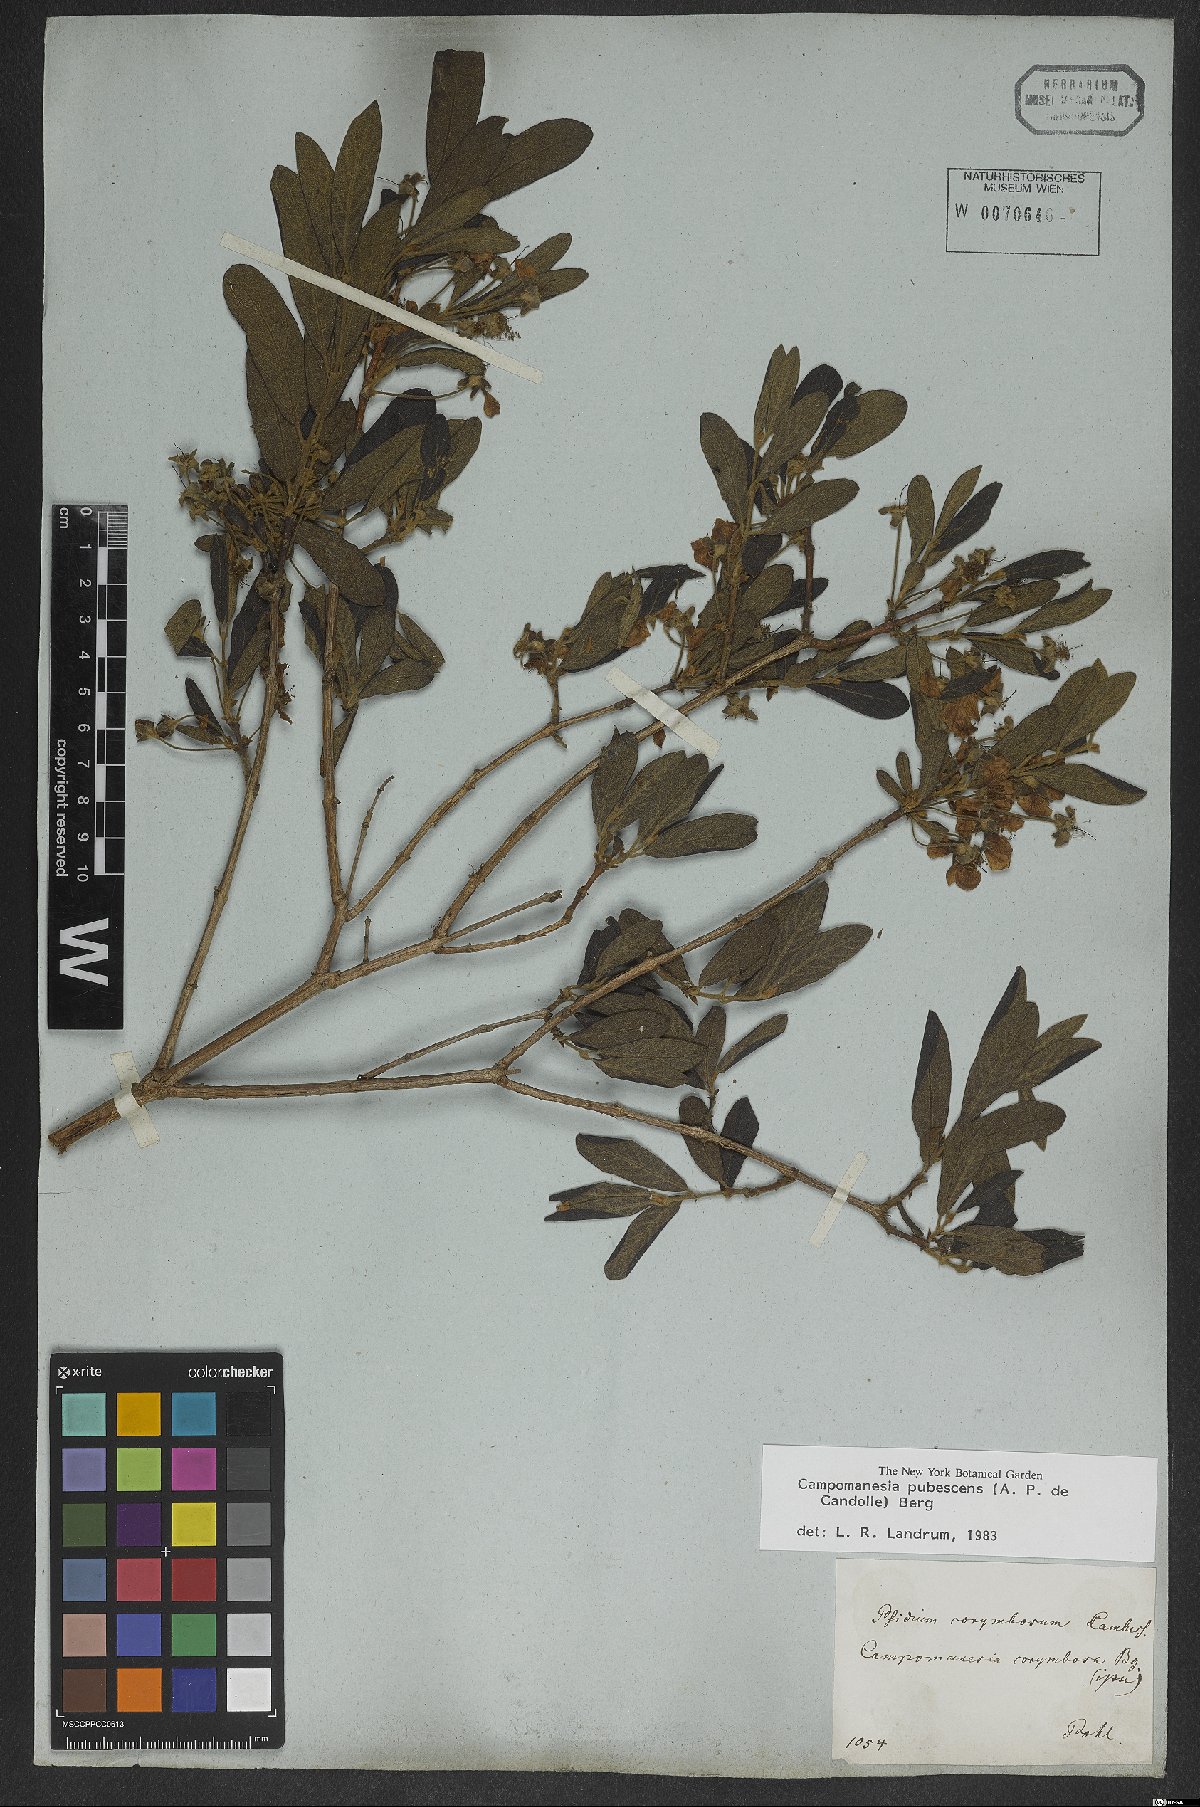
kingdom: Plantae
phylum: Tracheophyta
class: Magnoliopsida
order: Myrtales
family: Myrtaceae
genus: Campomanesia
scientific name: Campomanesia pubescens
